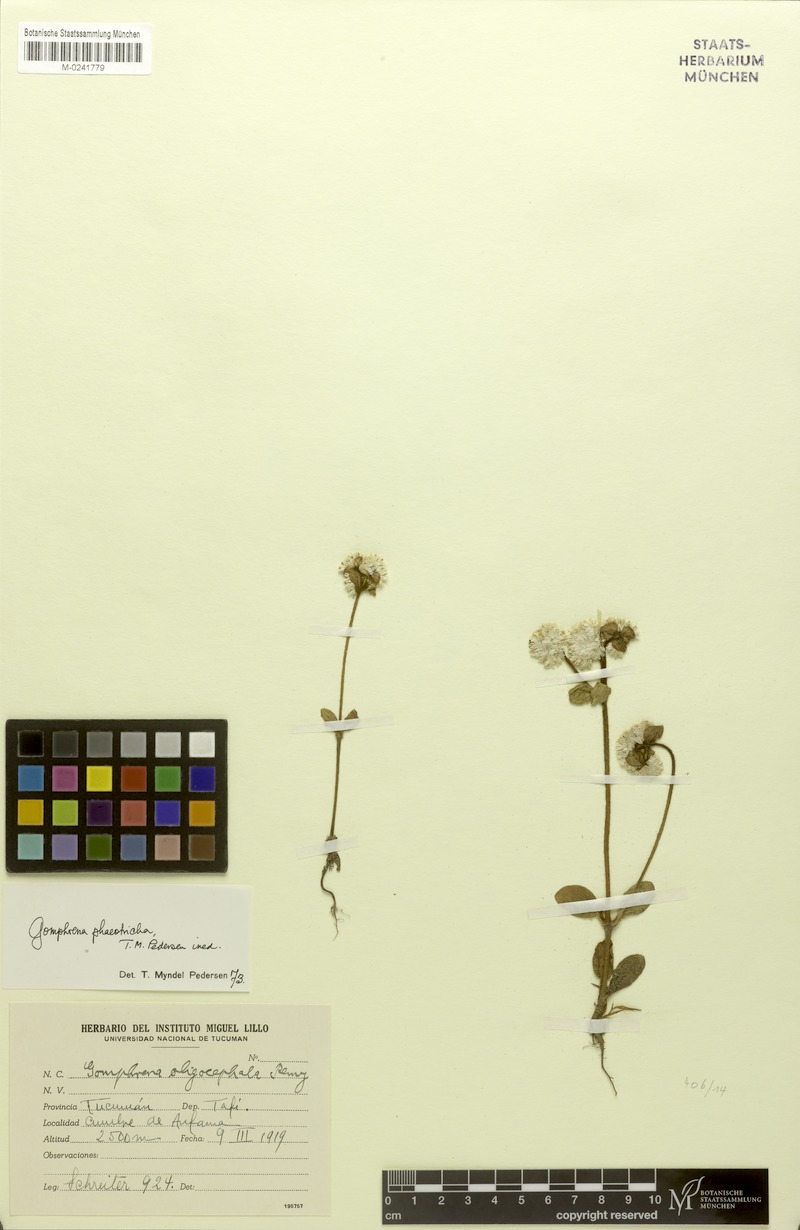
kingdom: Plantae
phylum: Tracheophyta
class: Magnoliopsida
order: Caryophyllales
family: Amaranthaceae
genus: Gomphrena
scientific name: Gomphrena phaeotricha
